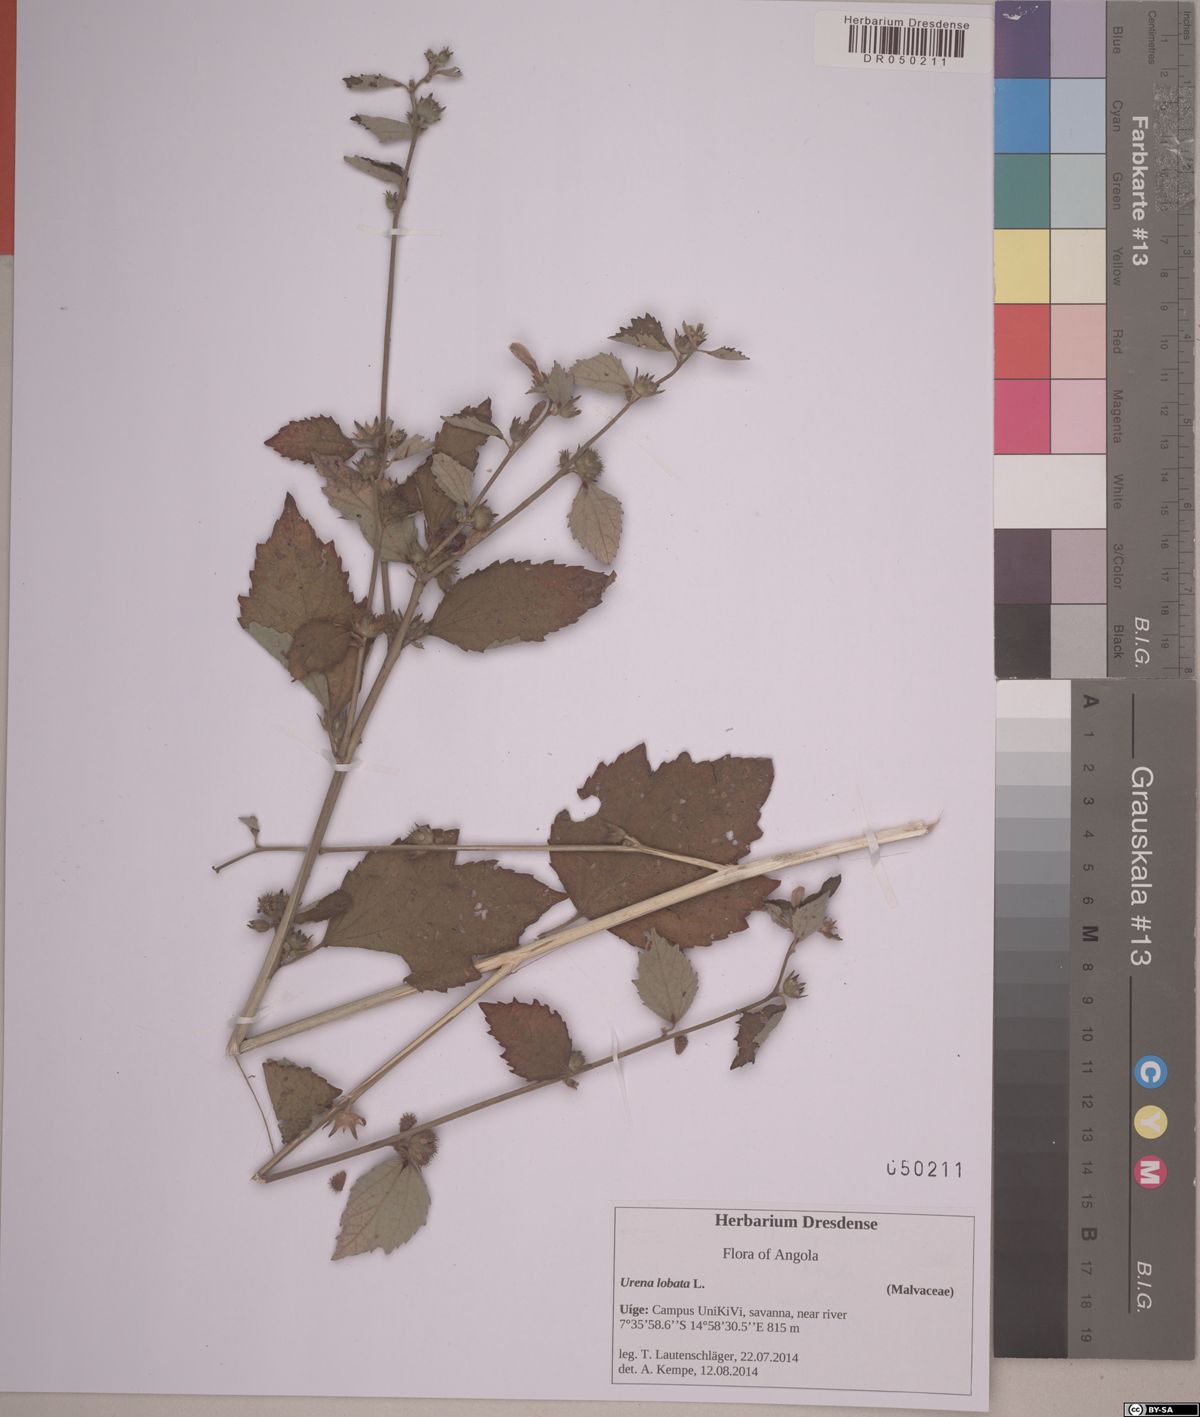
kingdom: Plantae
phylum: Tracheophyta
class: Magnoliopsida
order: Malvales
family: Malvaceae
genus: Urena
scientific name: Urena lobata
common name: Caesarweed
